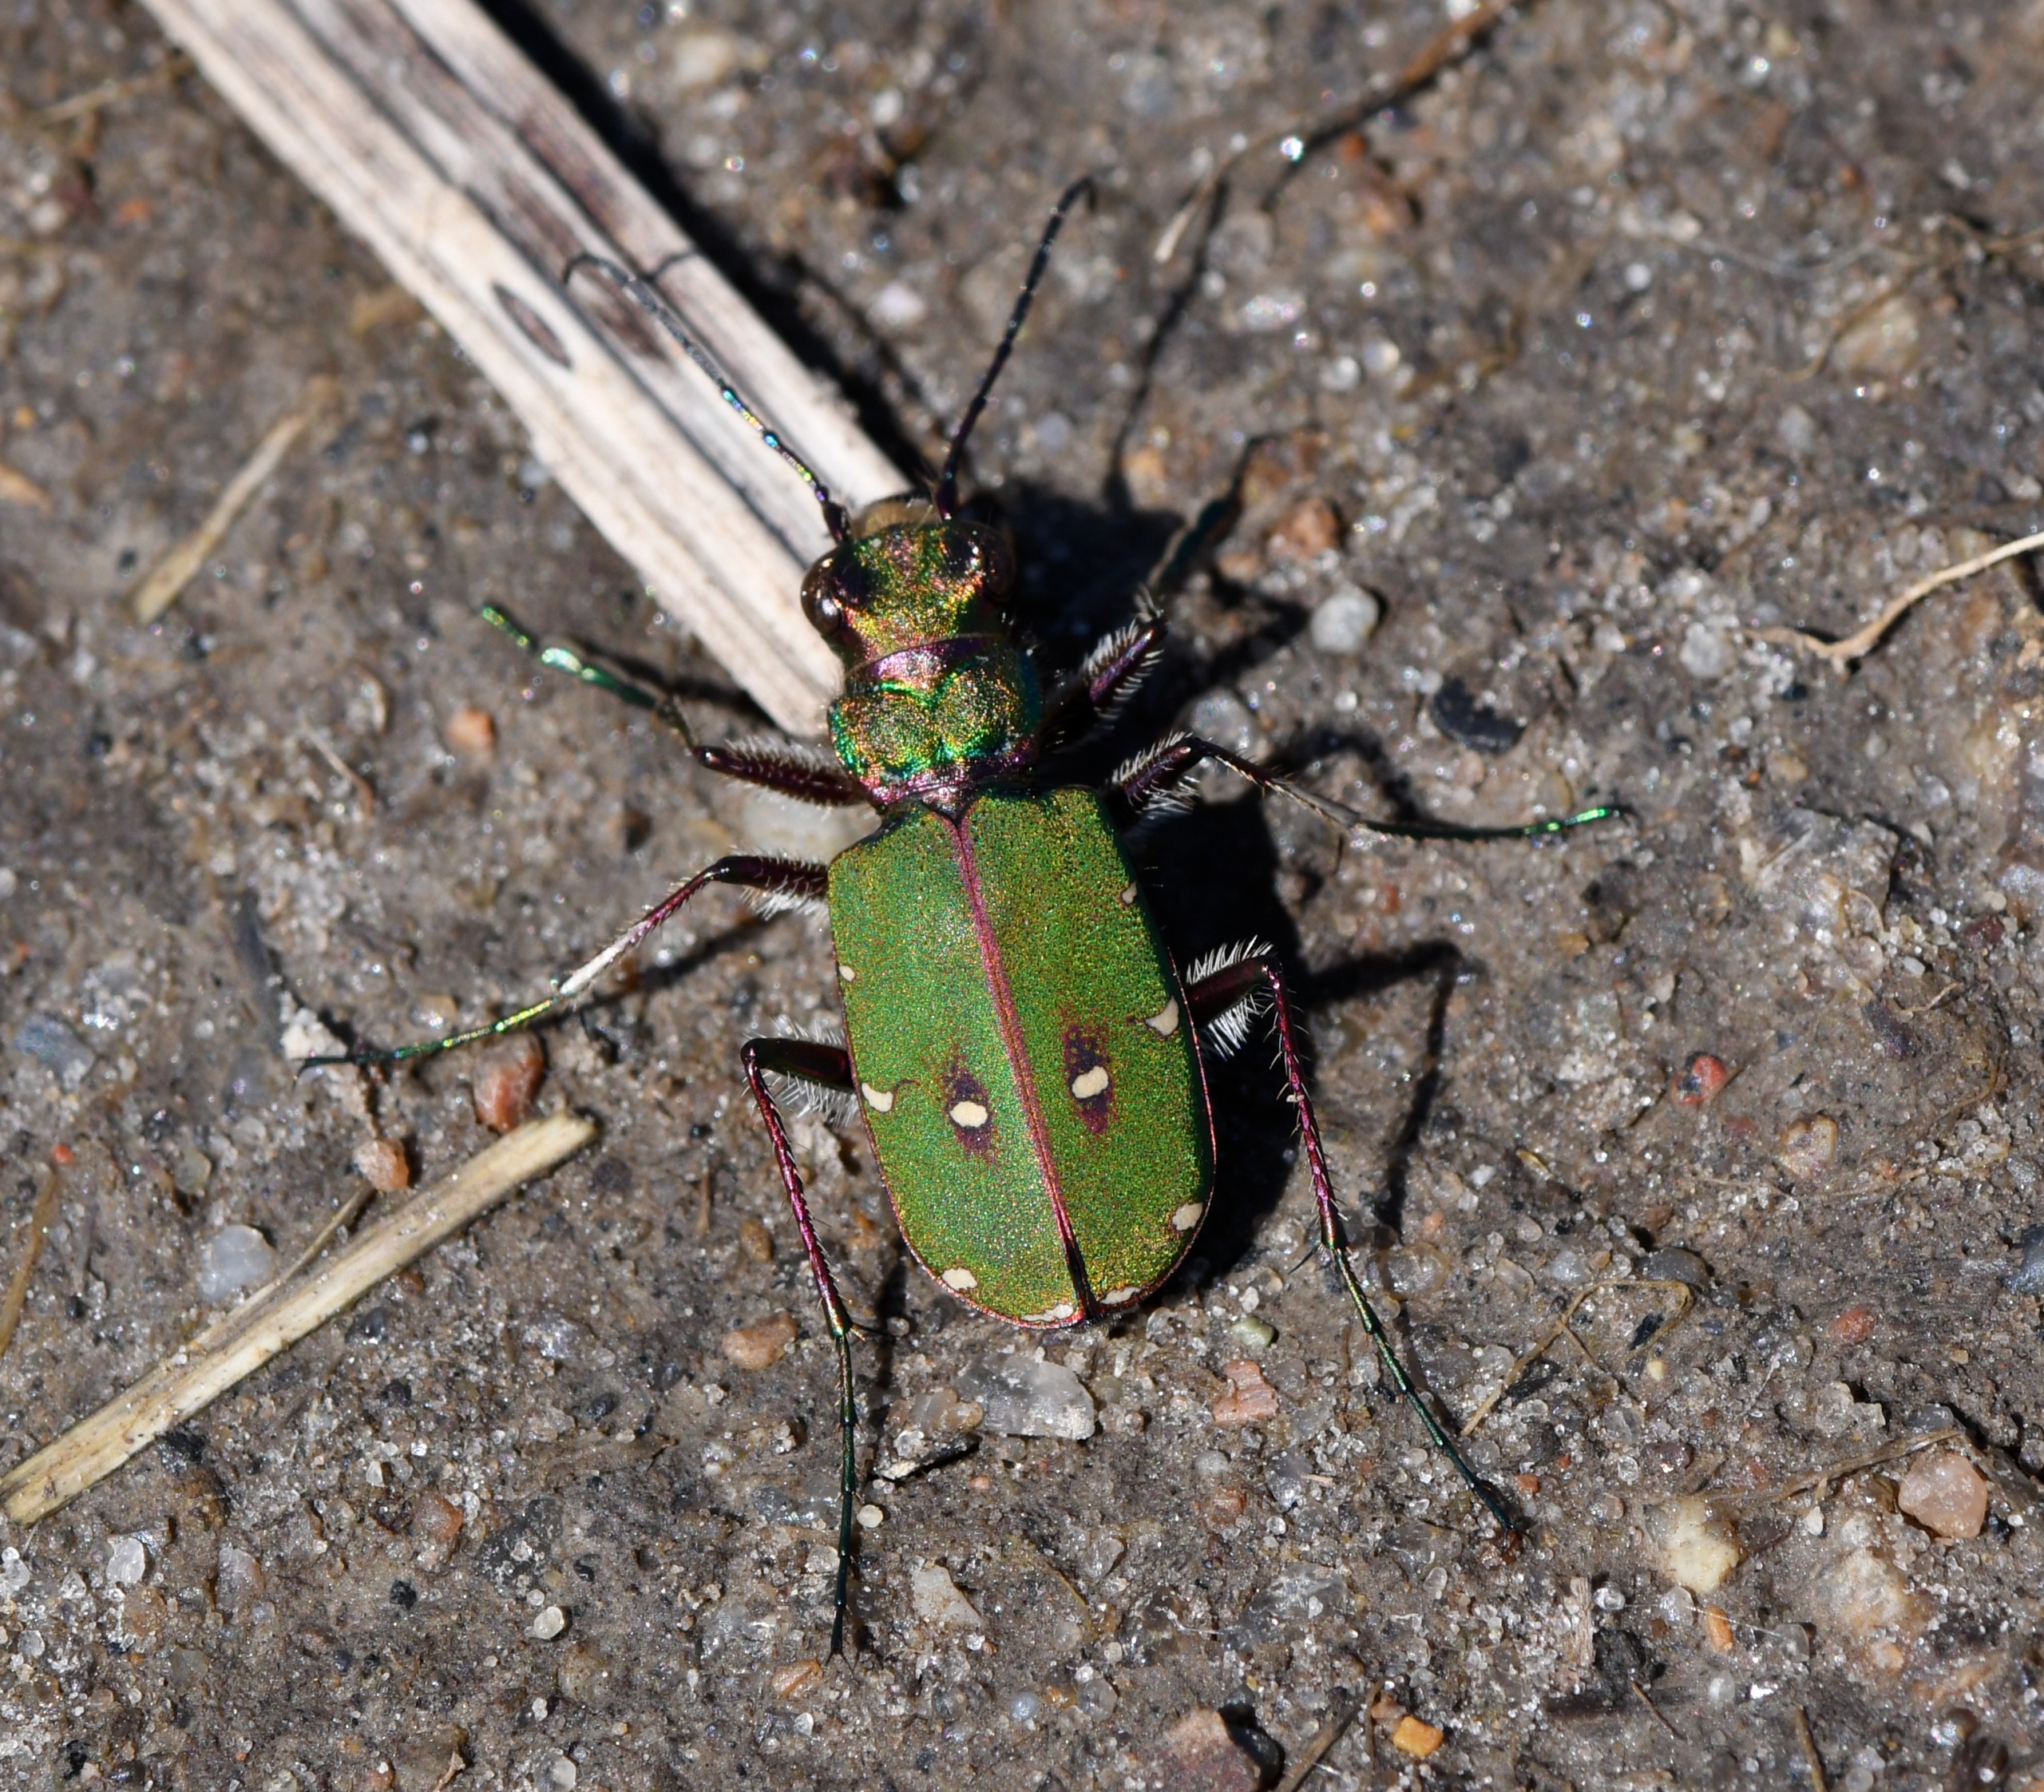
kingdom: Animalia
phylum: Arthropoda
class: Insecta
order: Coleoptera
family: Carabidae
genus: Cicindela
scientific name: Cicindela campestris
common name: Grøn sandspringer
